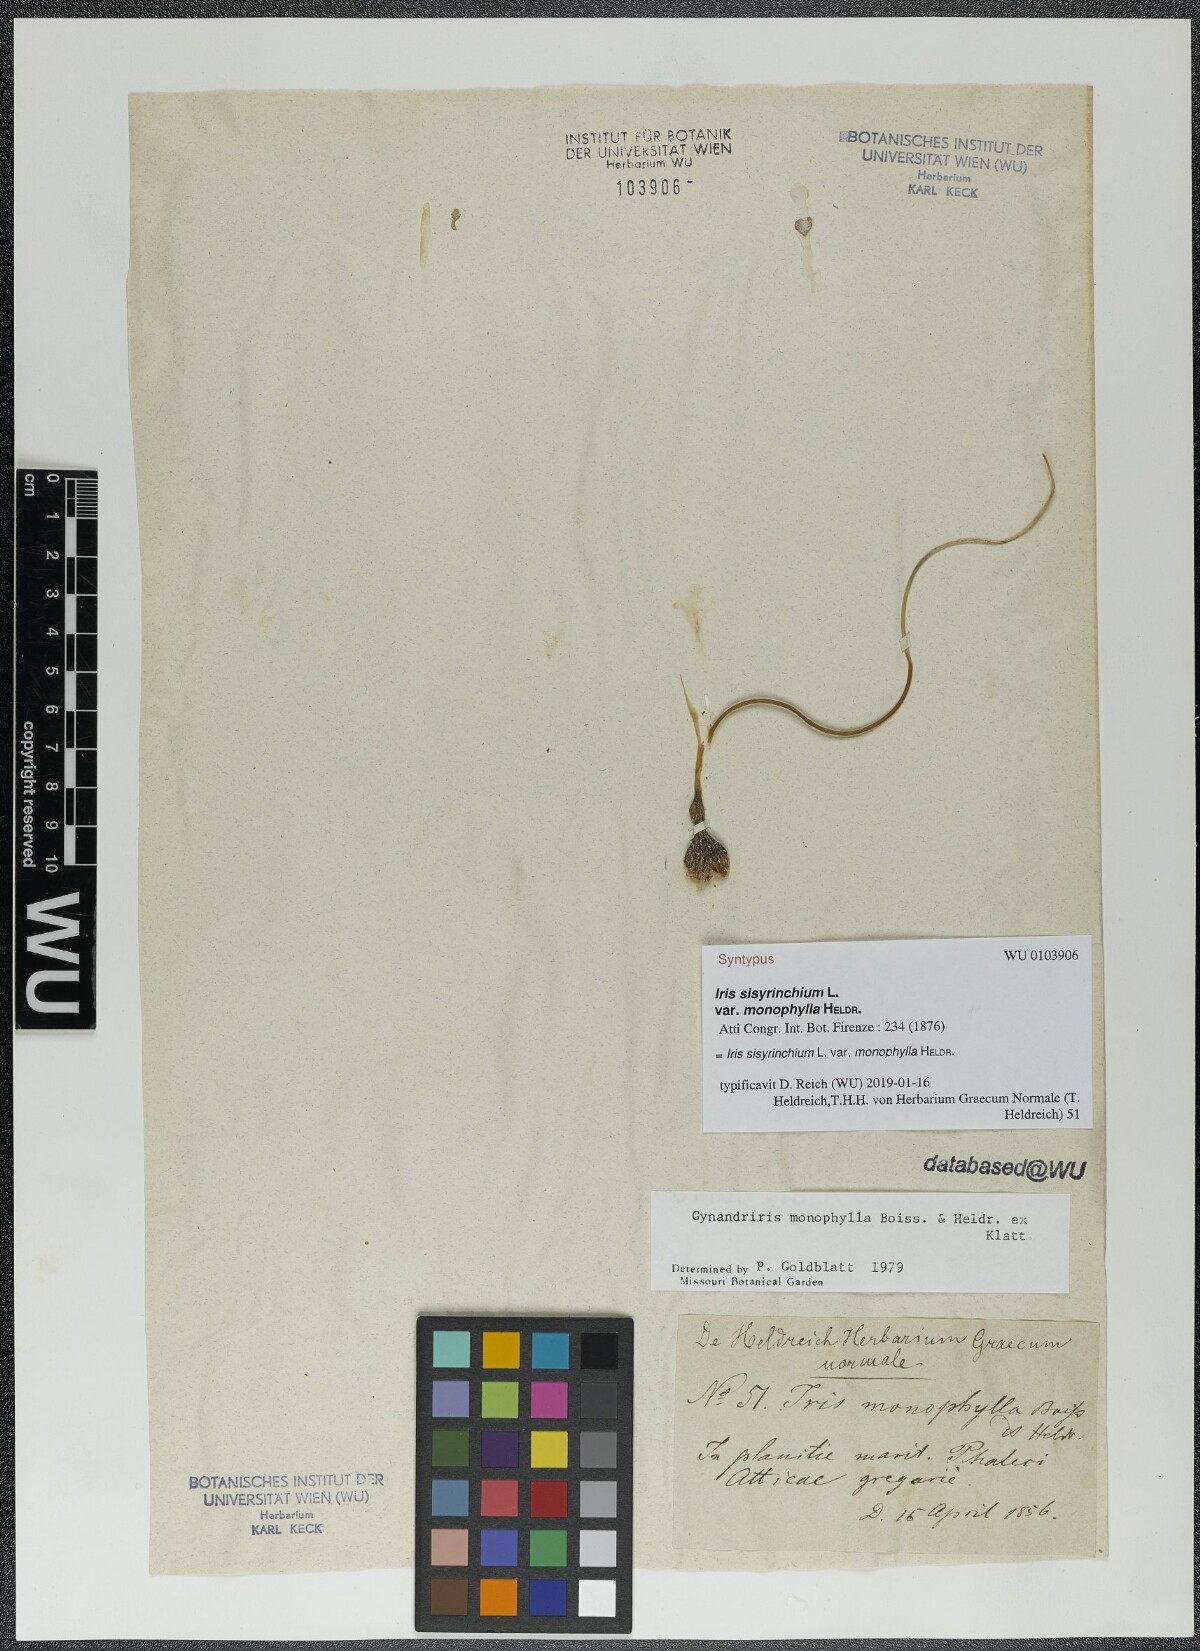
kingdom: Plantae
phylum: Tracheophyta
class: Liliopsida
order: Asparagales
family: Iridaceae
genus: Moraea
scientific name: Moraea mediterranea
